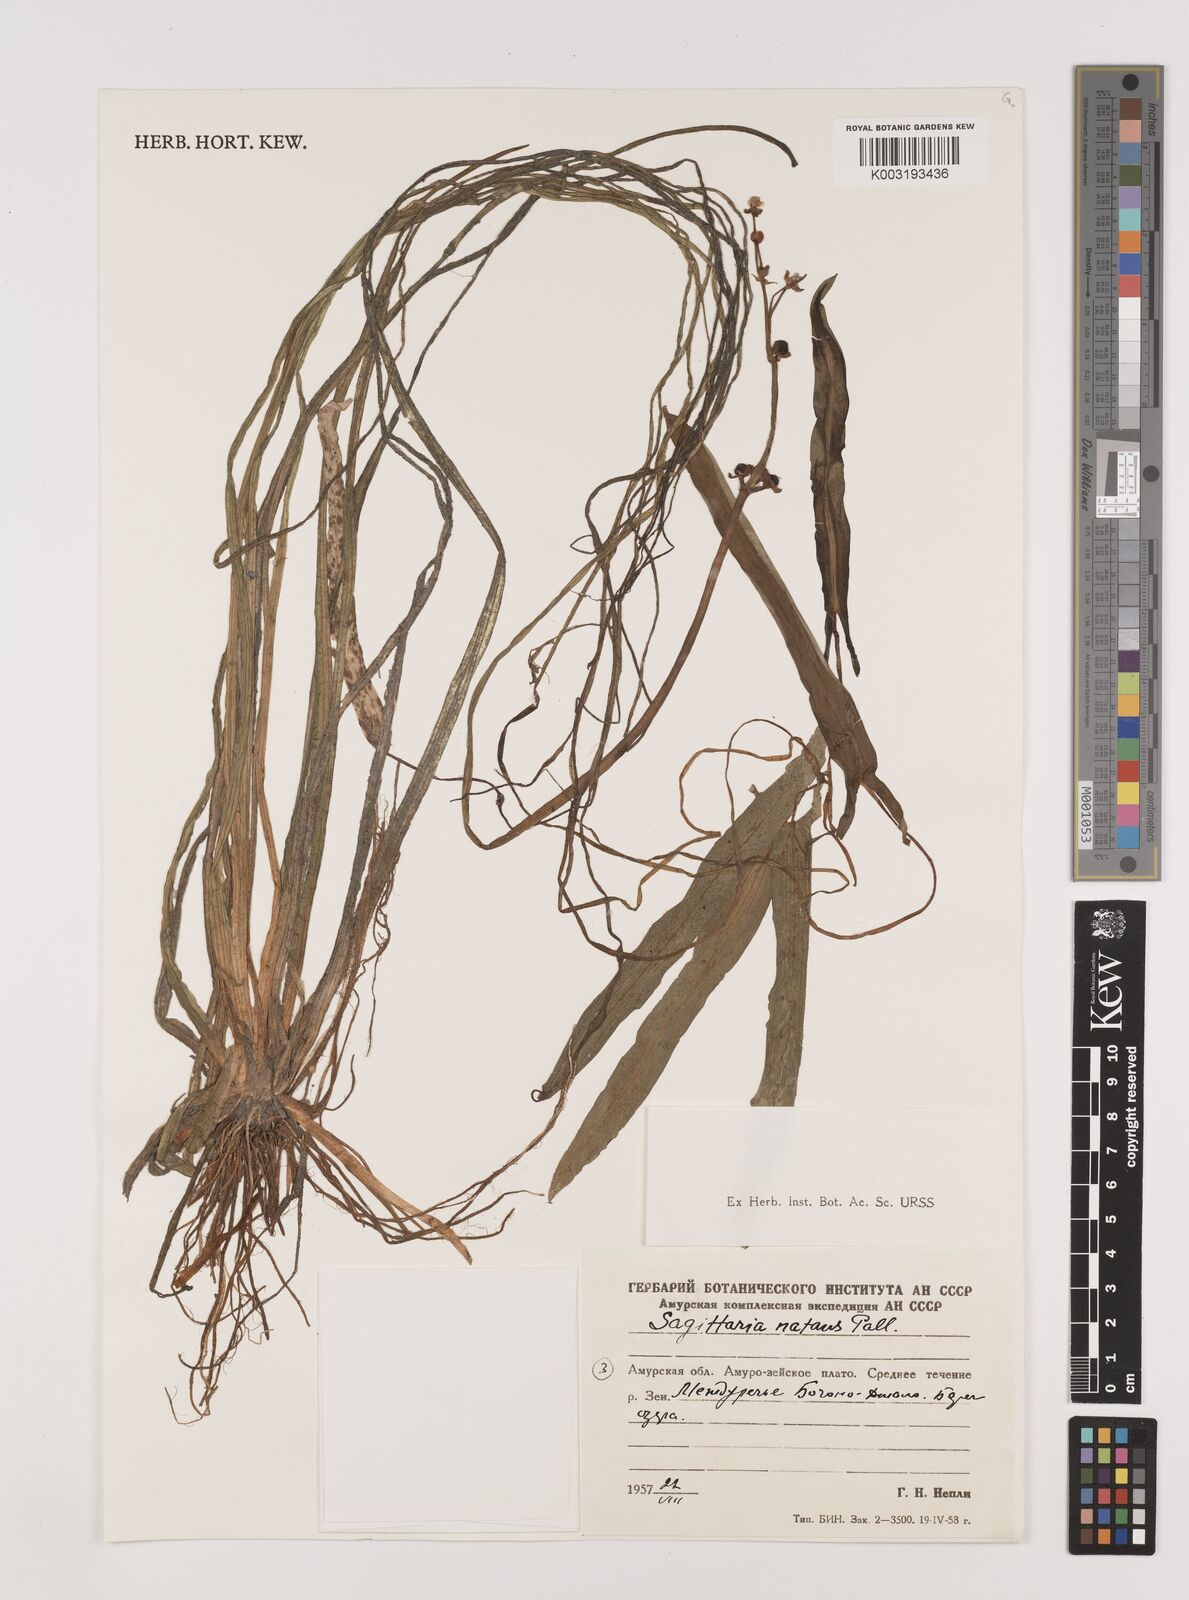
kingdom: Plantae
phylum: Tracheophyta
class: Liliopsida
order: Alismatales
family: Alismataceae
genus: Sagittaria
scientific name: Sagittaria natans
